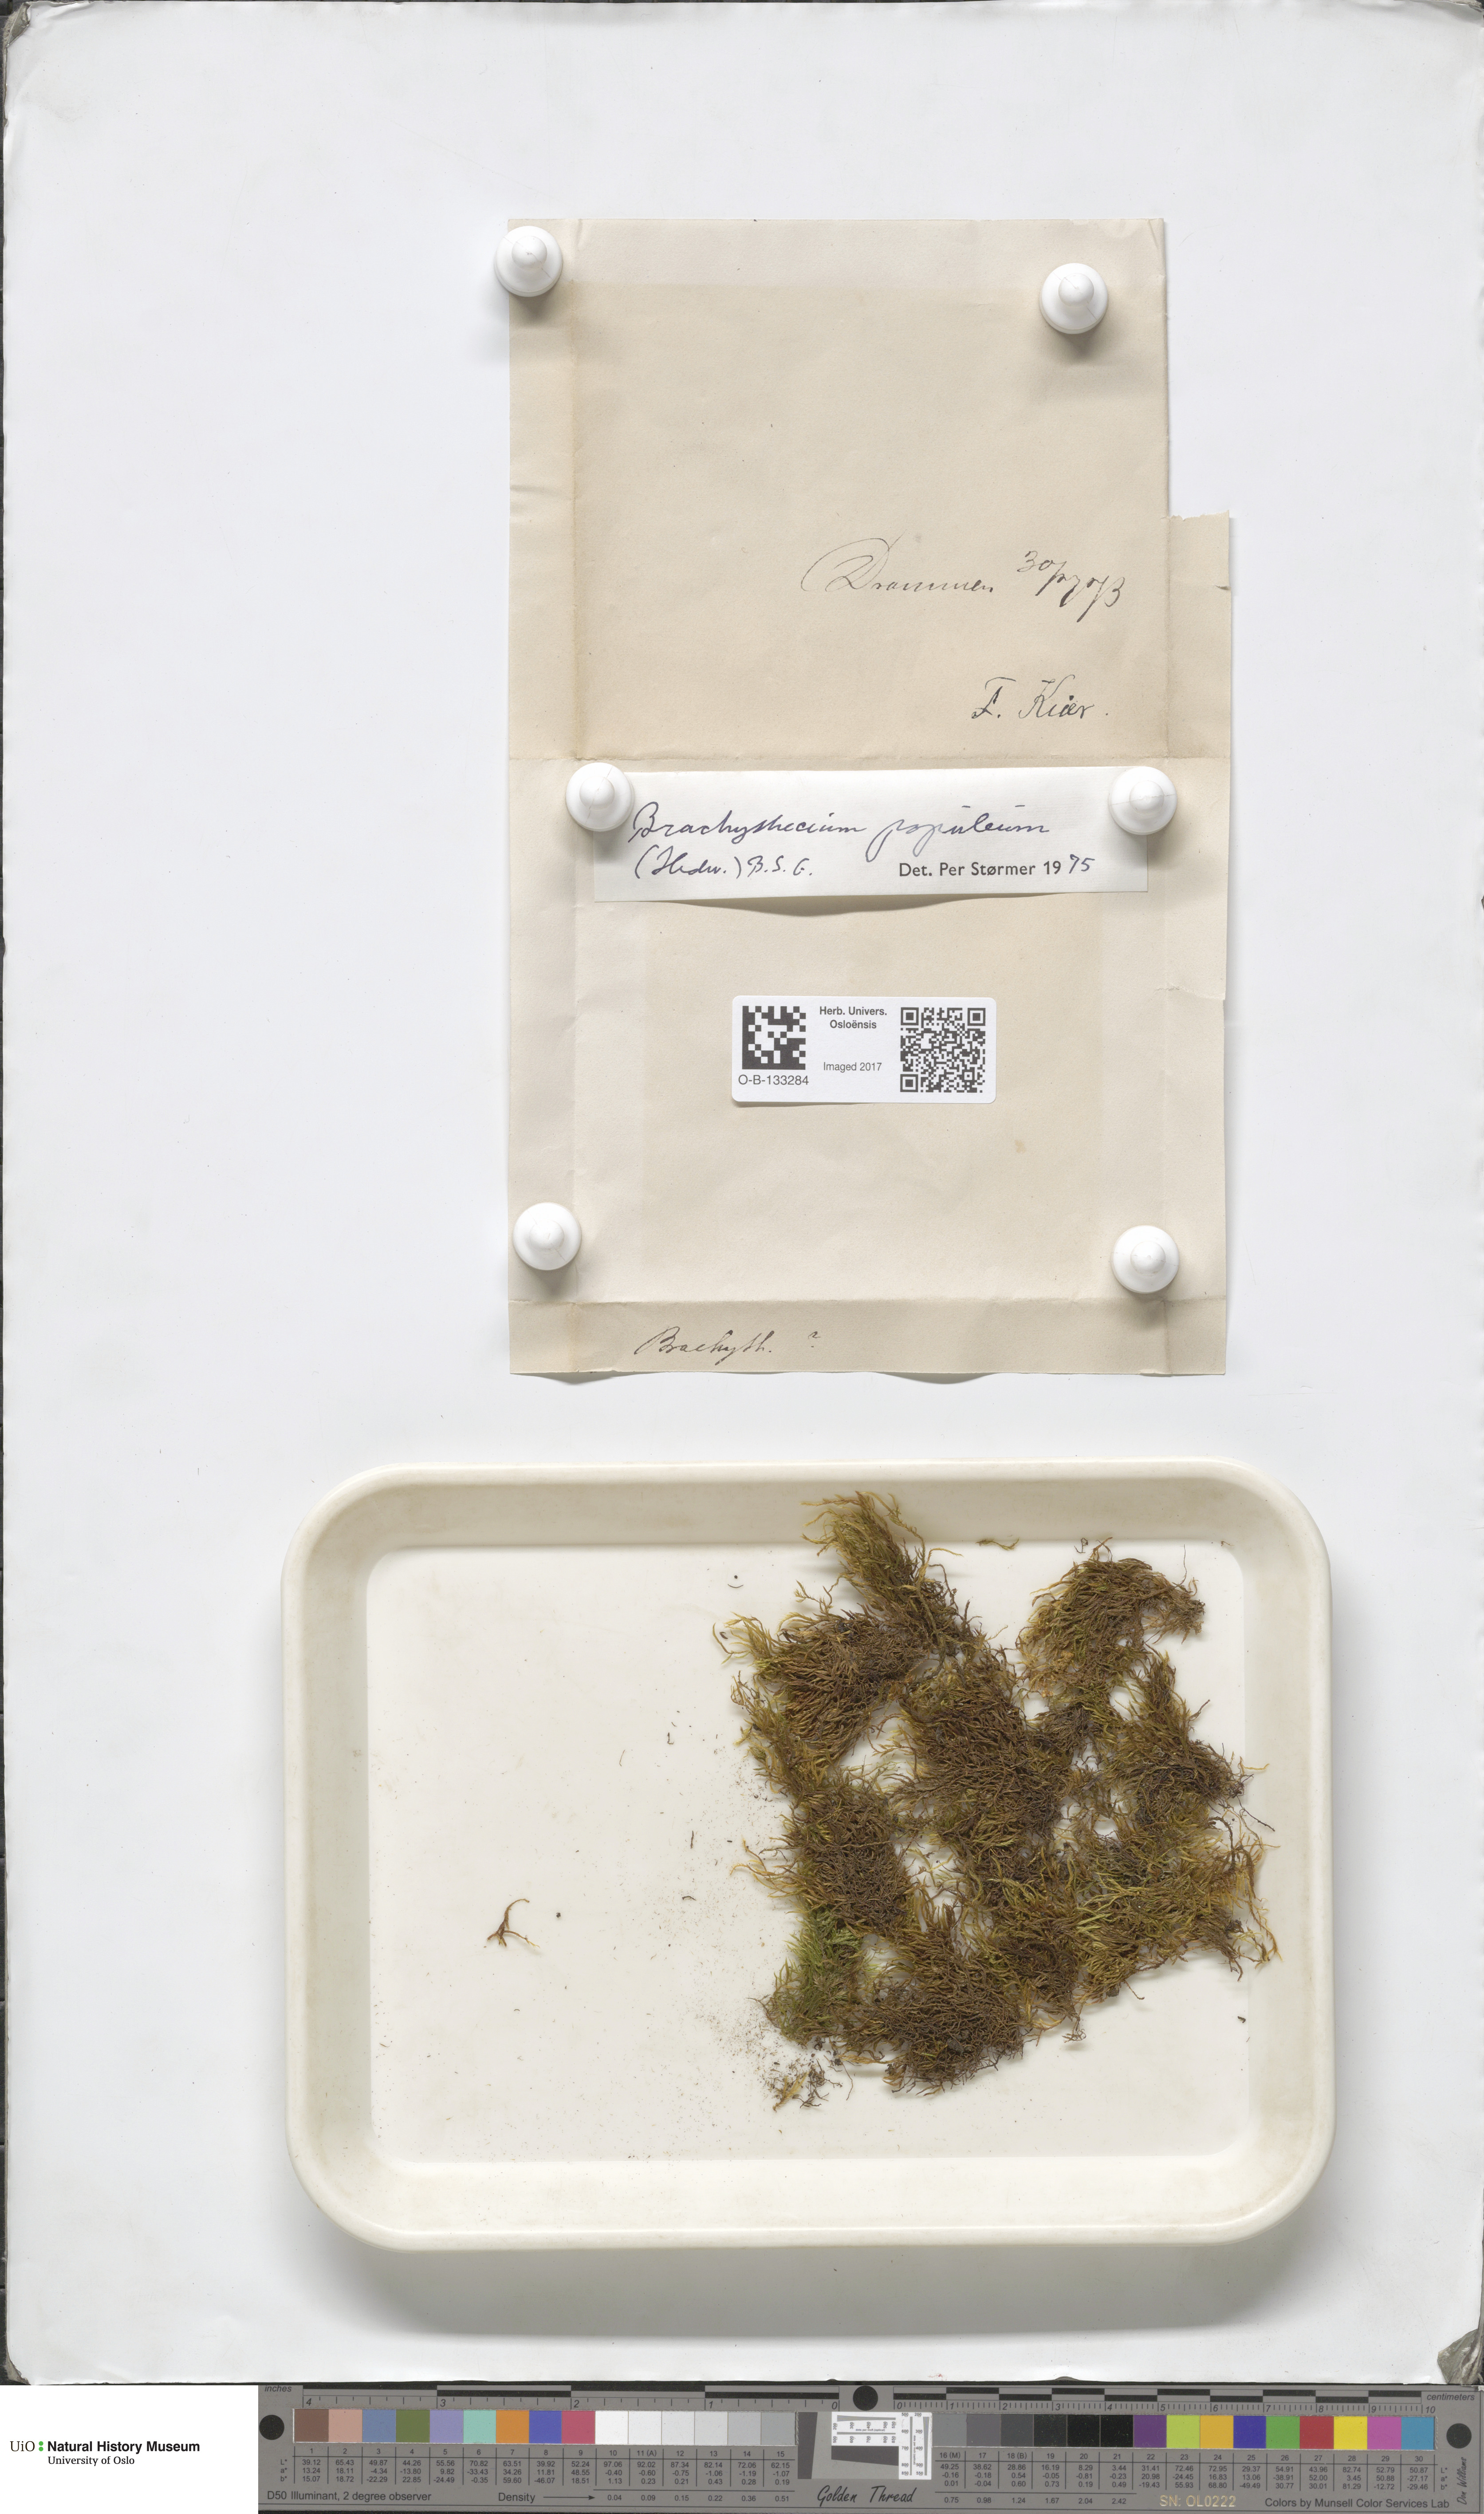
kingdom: Plantae
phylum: Bryophyta
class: Bryopsida
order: Hypnales
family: Brachytheciaceae
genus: Sciuro-hypnum
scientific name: Sciuro-hypnum plumosum
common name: Rusty feather-moss
